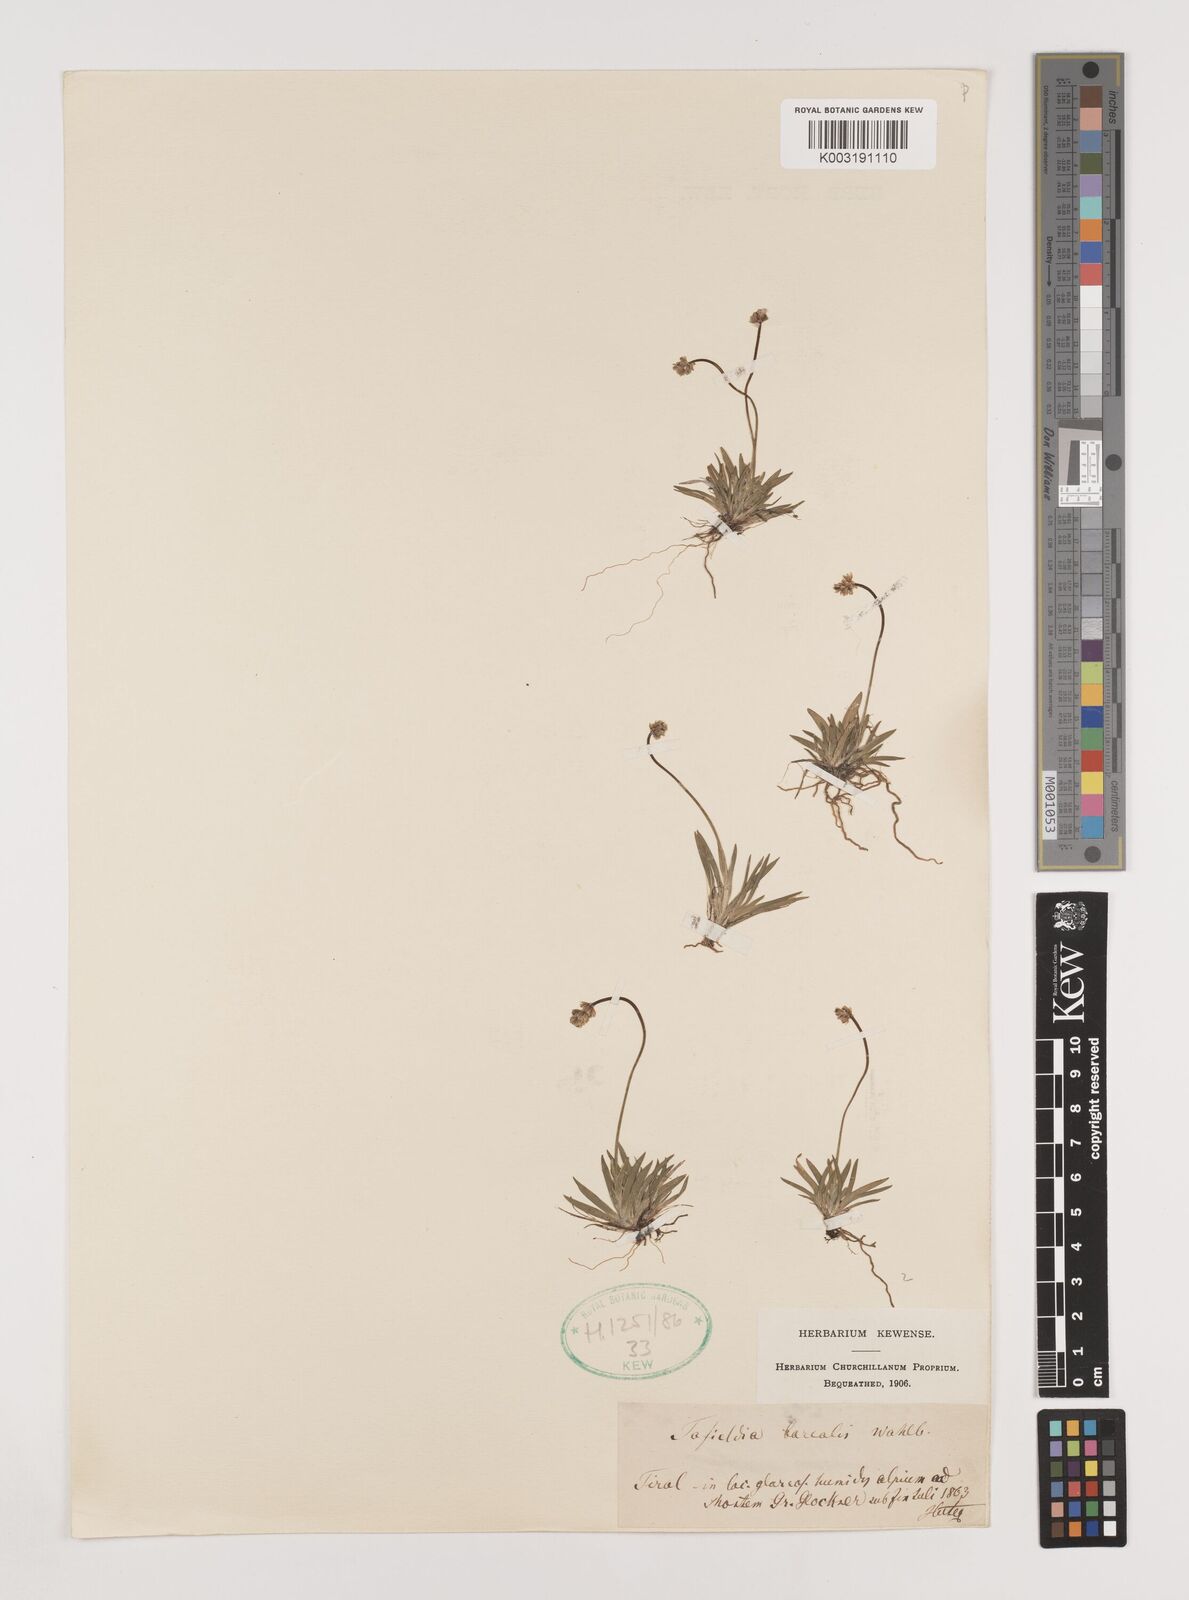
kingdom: Plantae
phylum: Tracheophyta
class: Liliopsida
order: Alismatales
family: Tofieldiaceae
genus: Tofieldia
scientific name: Tofieldia pusilla
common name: Scottish false asphodel
